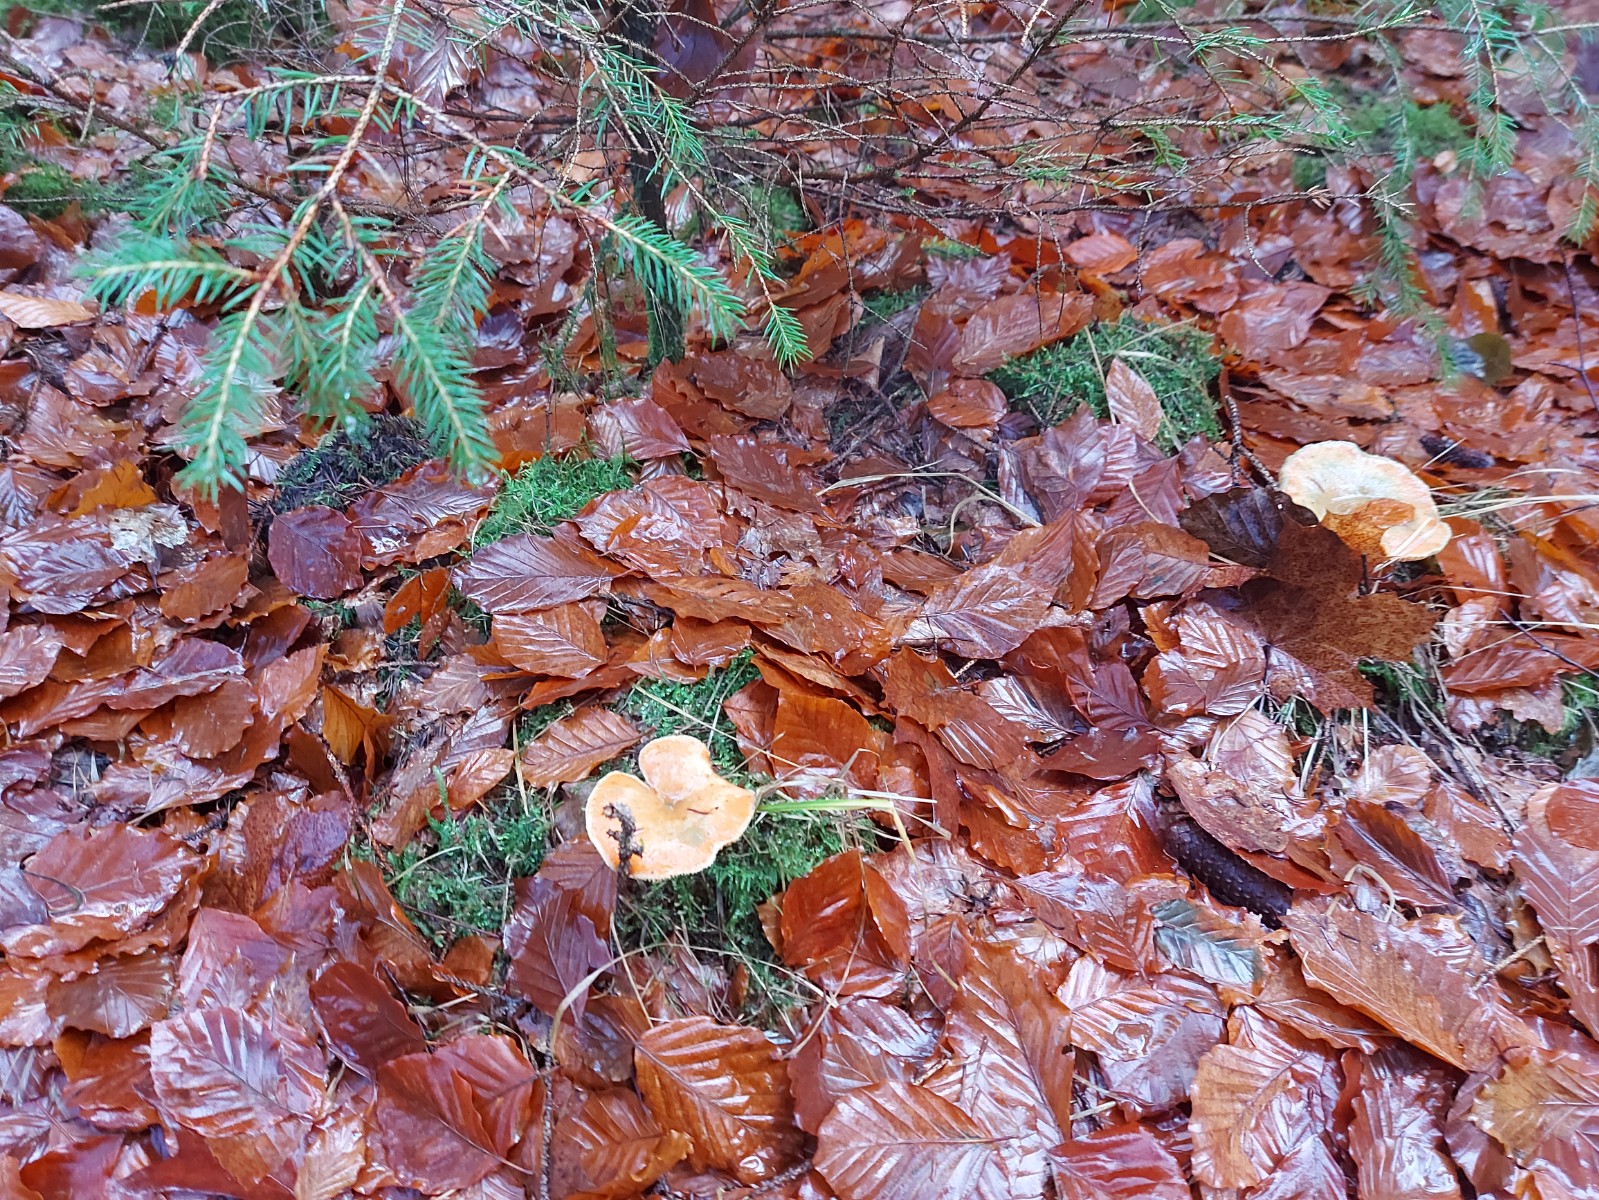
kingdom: Fungi
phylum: Basidiomycota
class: Agaricomycetes
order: Russulales
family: Russulaceae
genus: Lactarius
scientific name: Lactarius deterrimus
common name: gran-mælkehat
